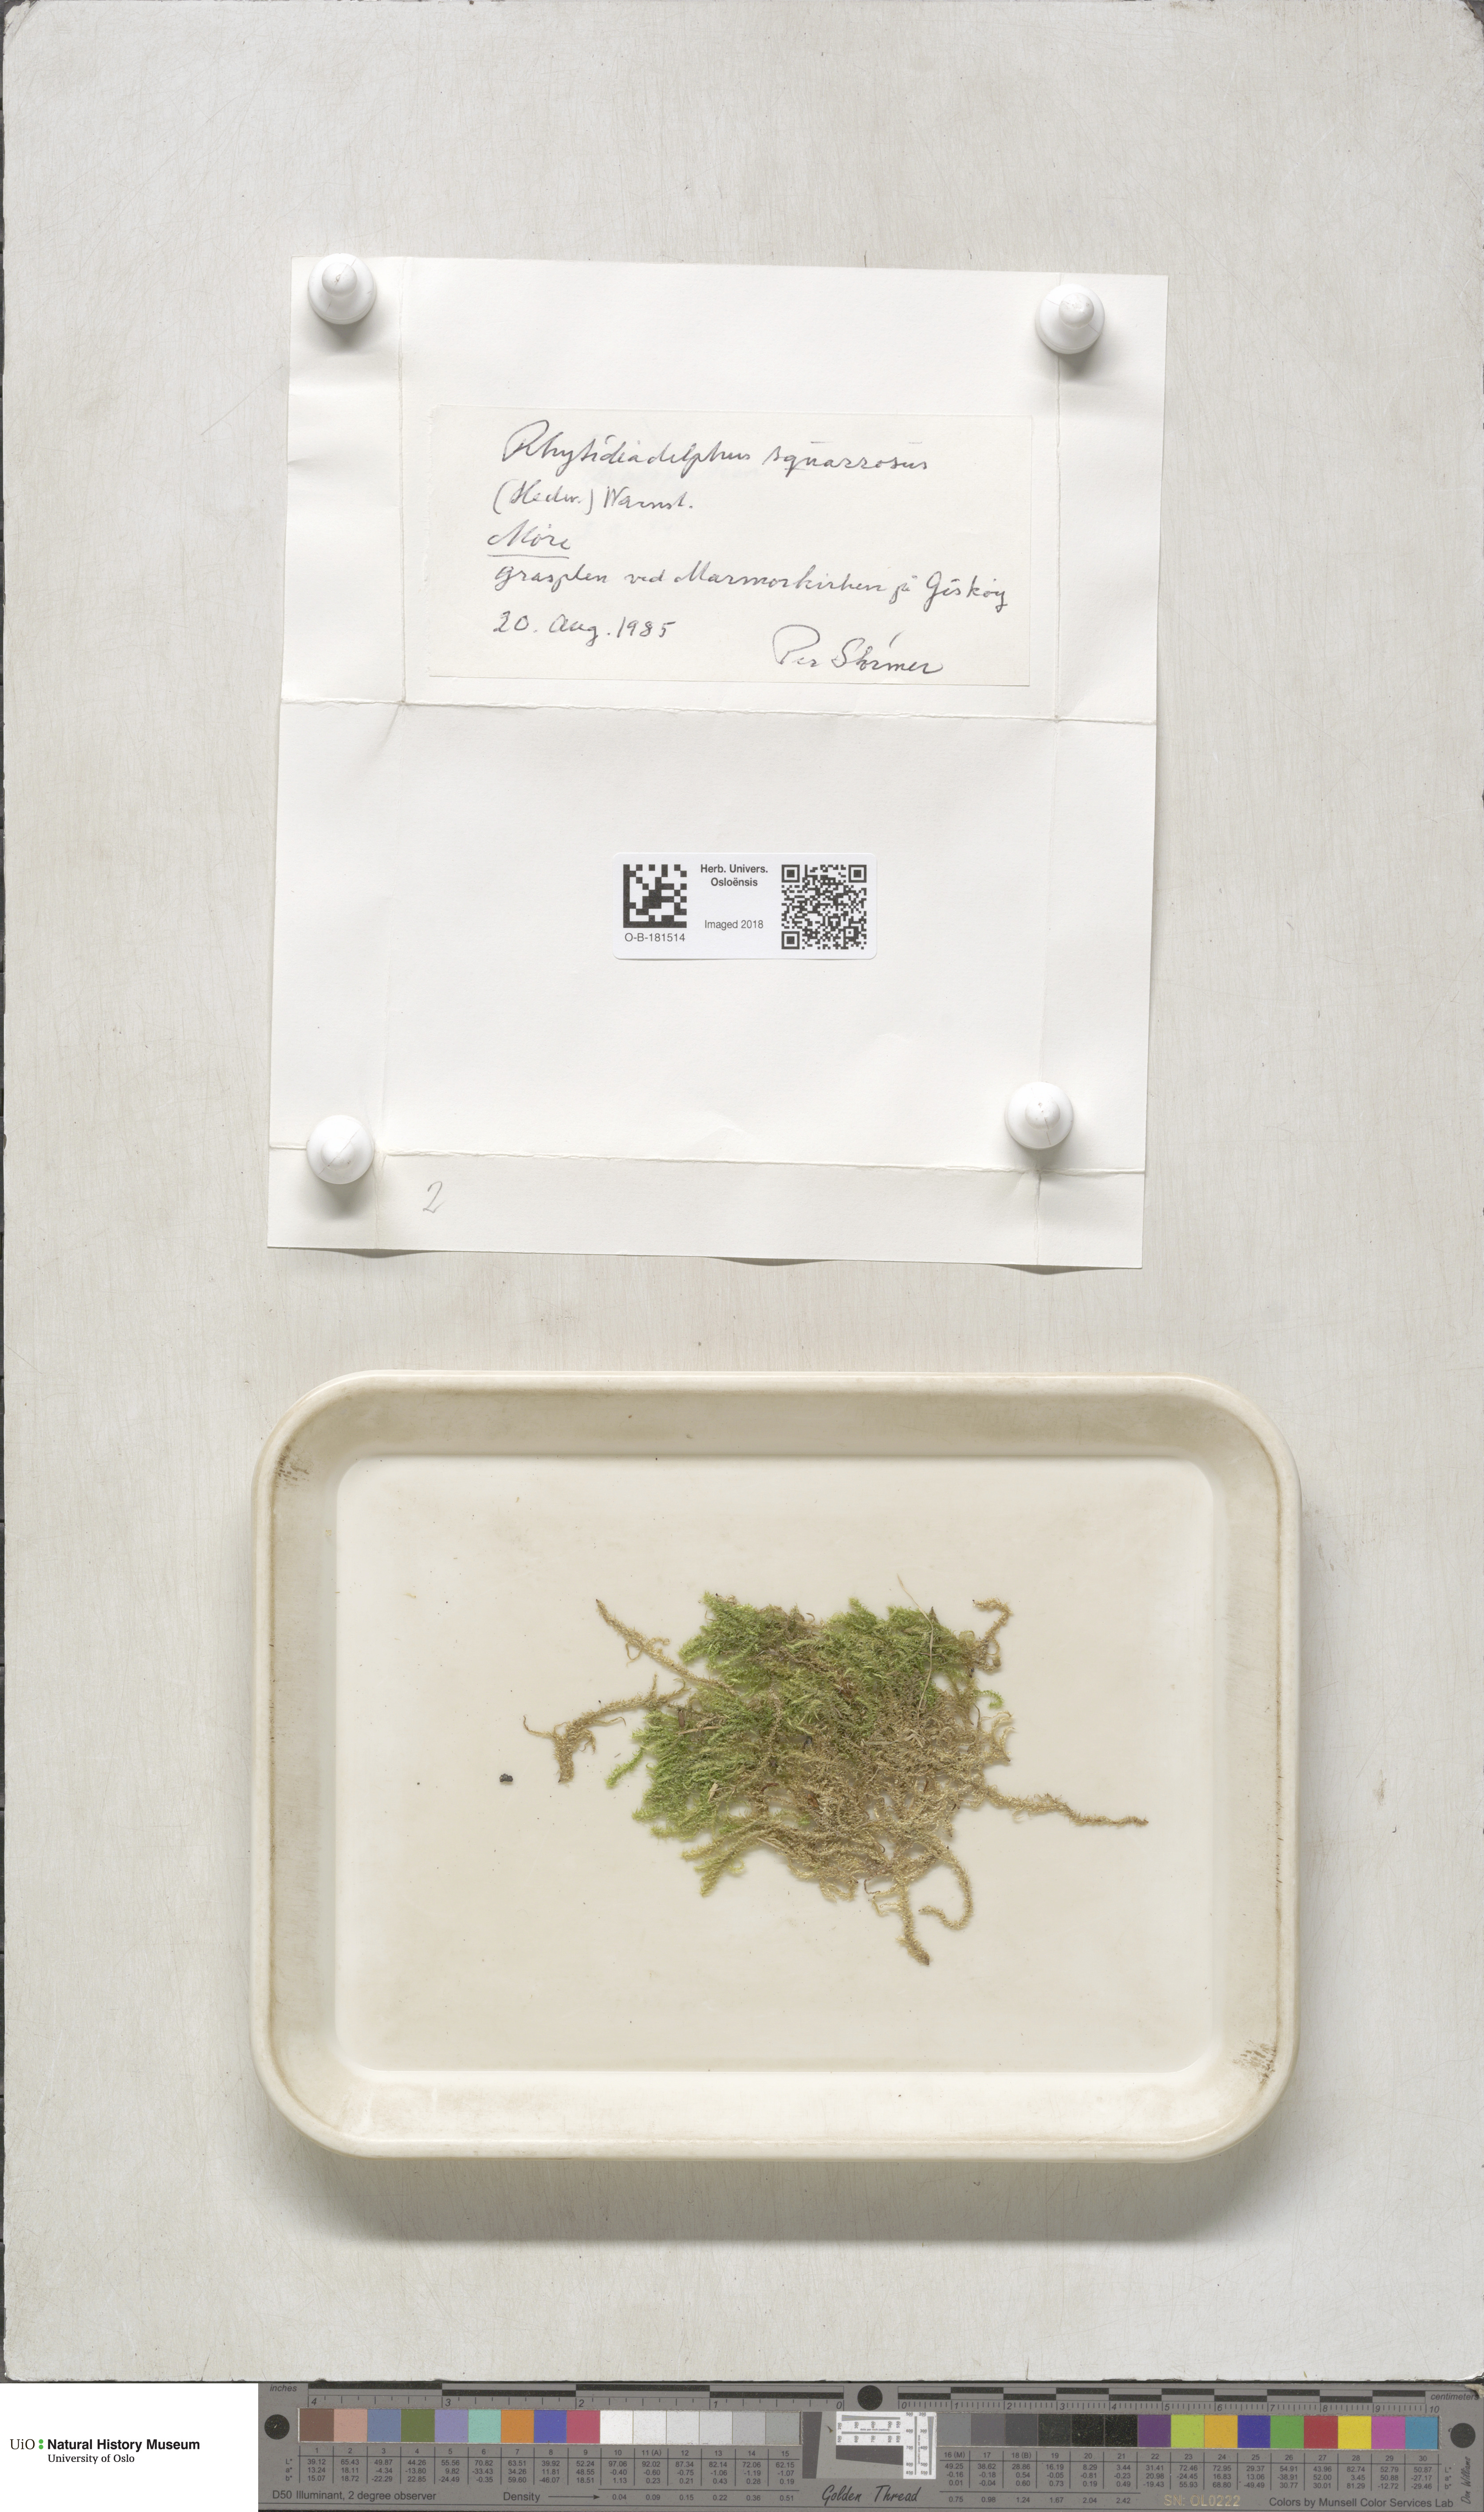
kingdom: Plantae
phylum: Bryophyta
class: Bryopsida
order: Hypnales
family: Hylocomiaceae
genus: Rhytidiadelphus
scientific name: Rhytidiadelphus squarrosus
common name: Springy turf-moss
